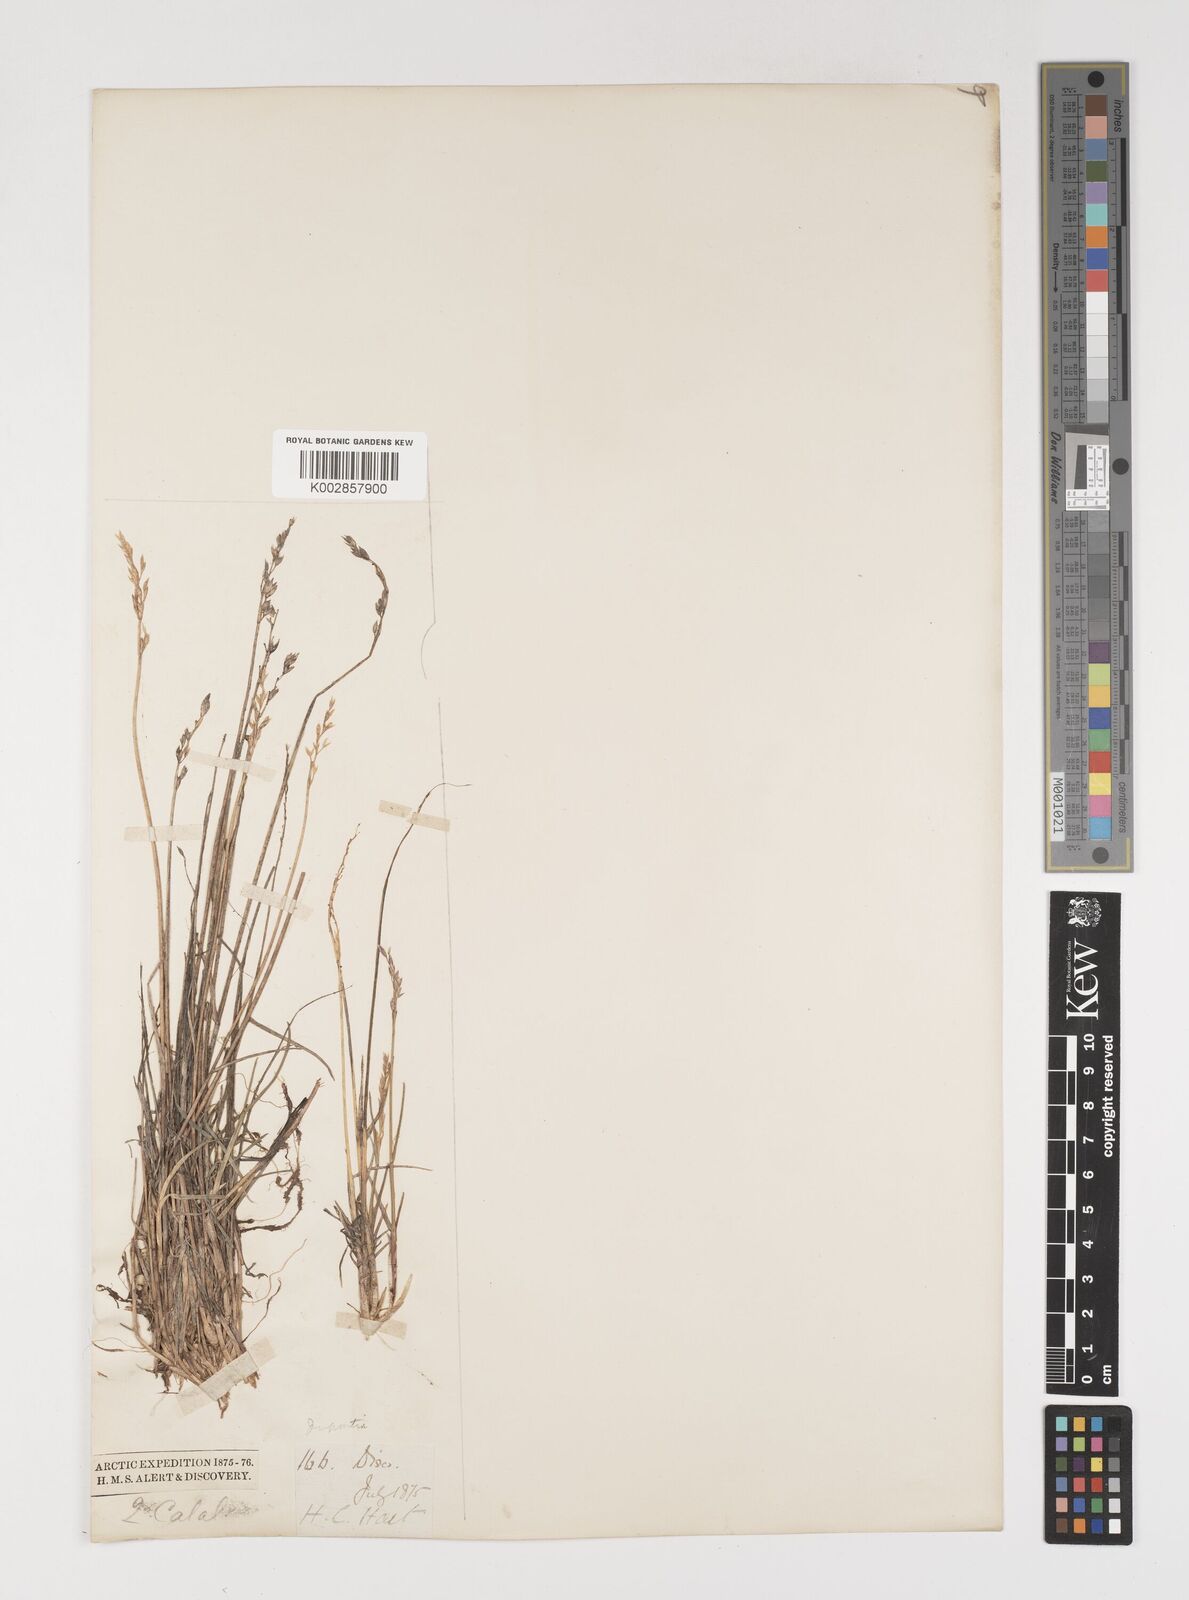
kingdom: Plantae
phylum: Tracheophyta
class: Liliopsida
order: Poales
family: Poaceae
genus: Puccinellia
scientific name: Puccinellia
